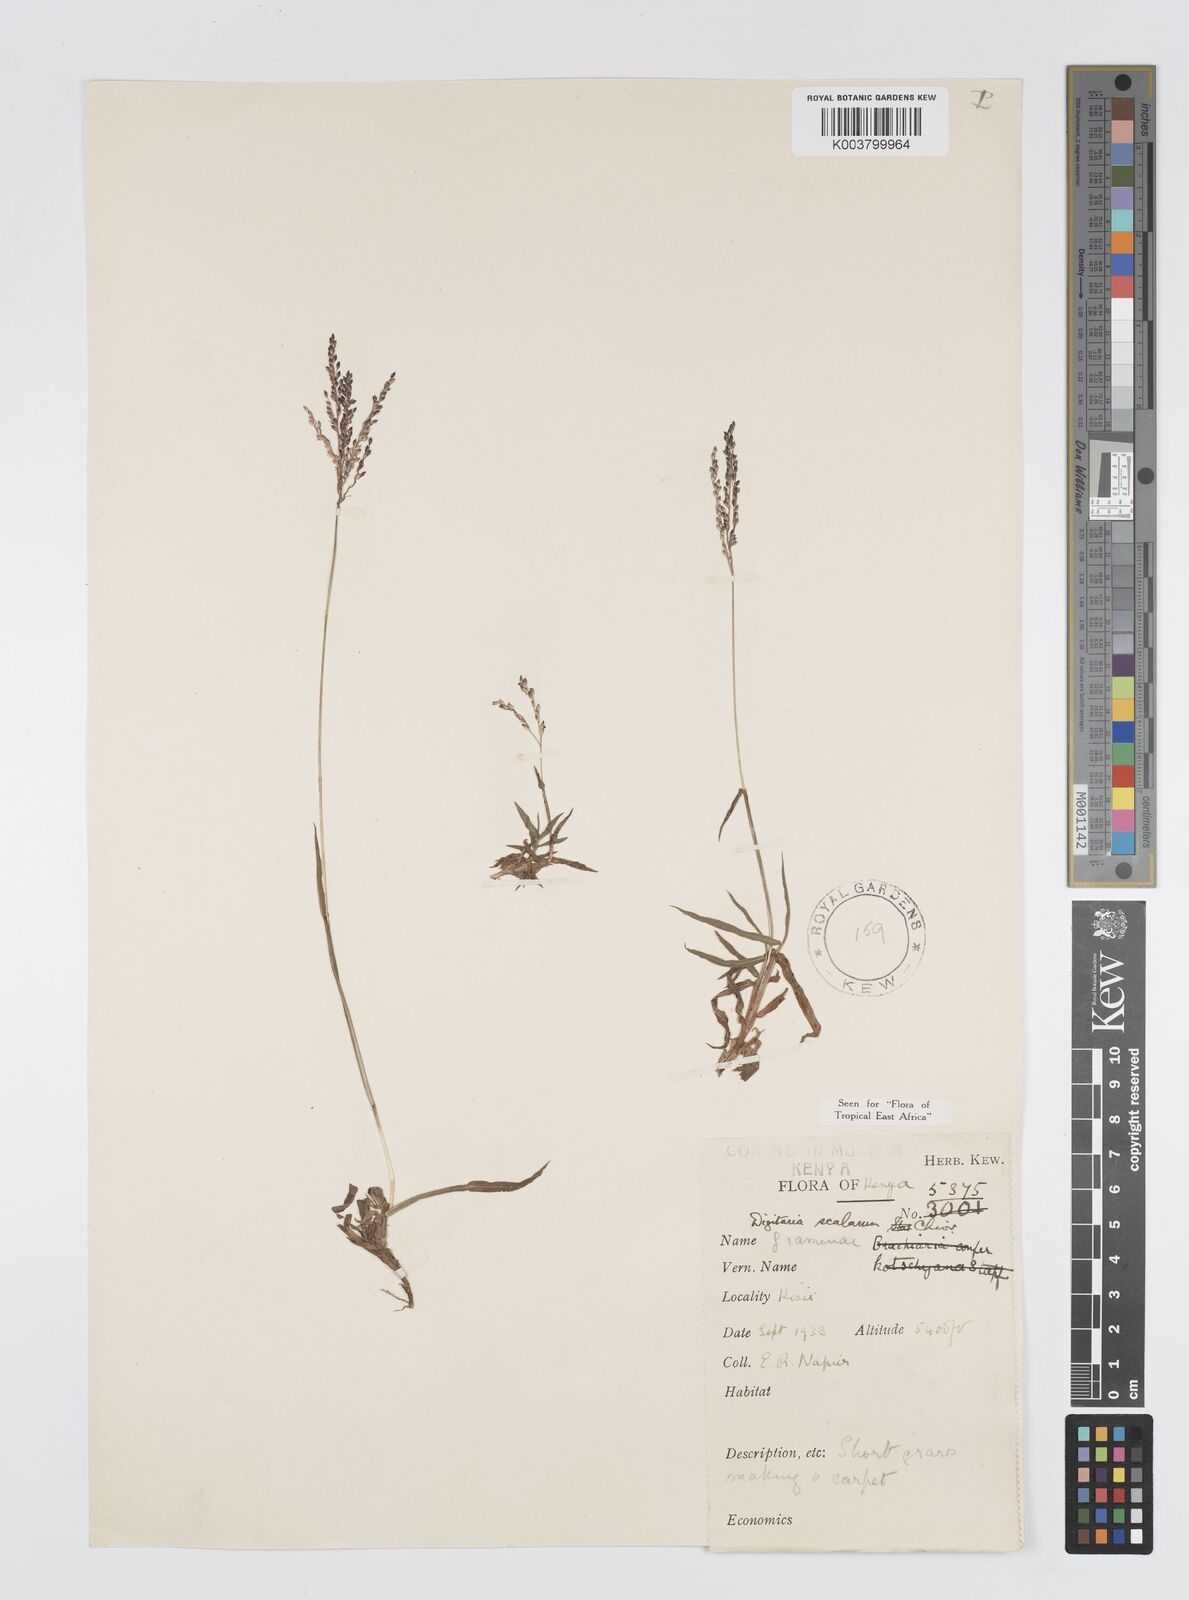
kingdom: Plantae
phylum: Tracheophyta
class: Liliopsida
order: Poales
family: Poaceae
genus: Digitaria
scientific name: Digitaria abyssinica
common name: African couchgrass
